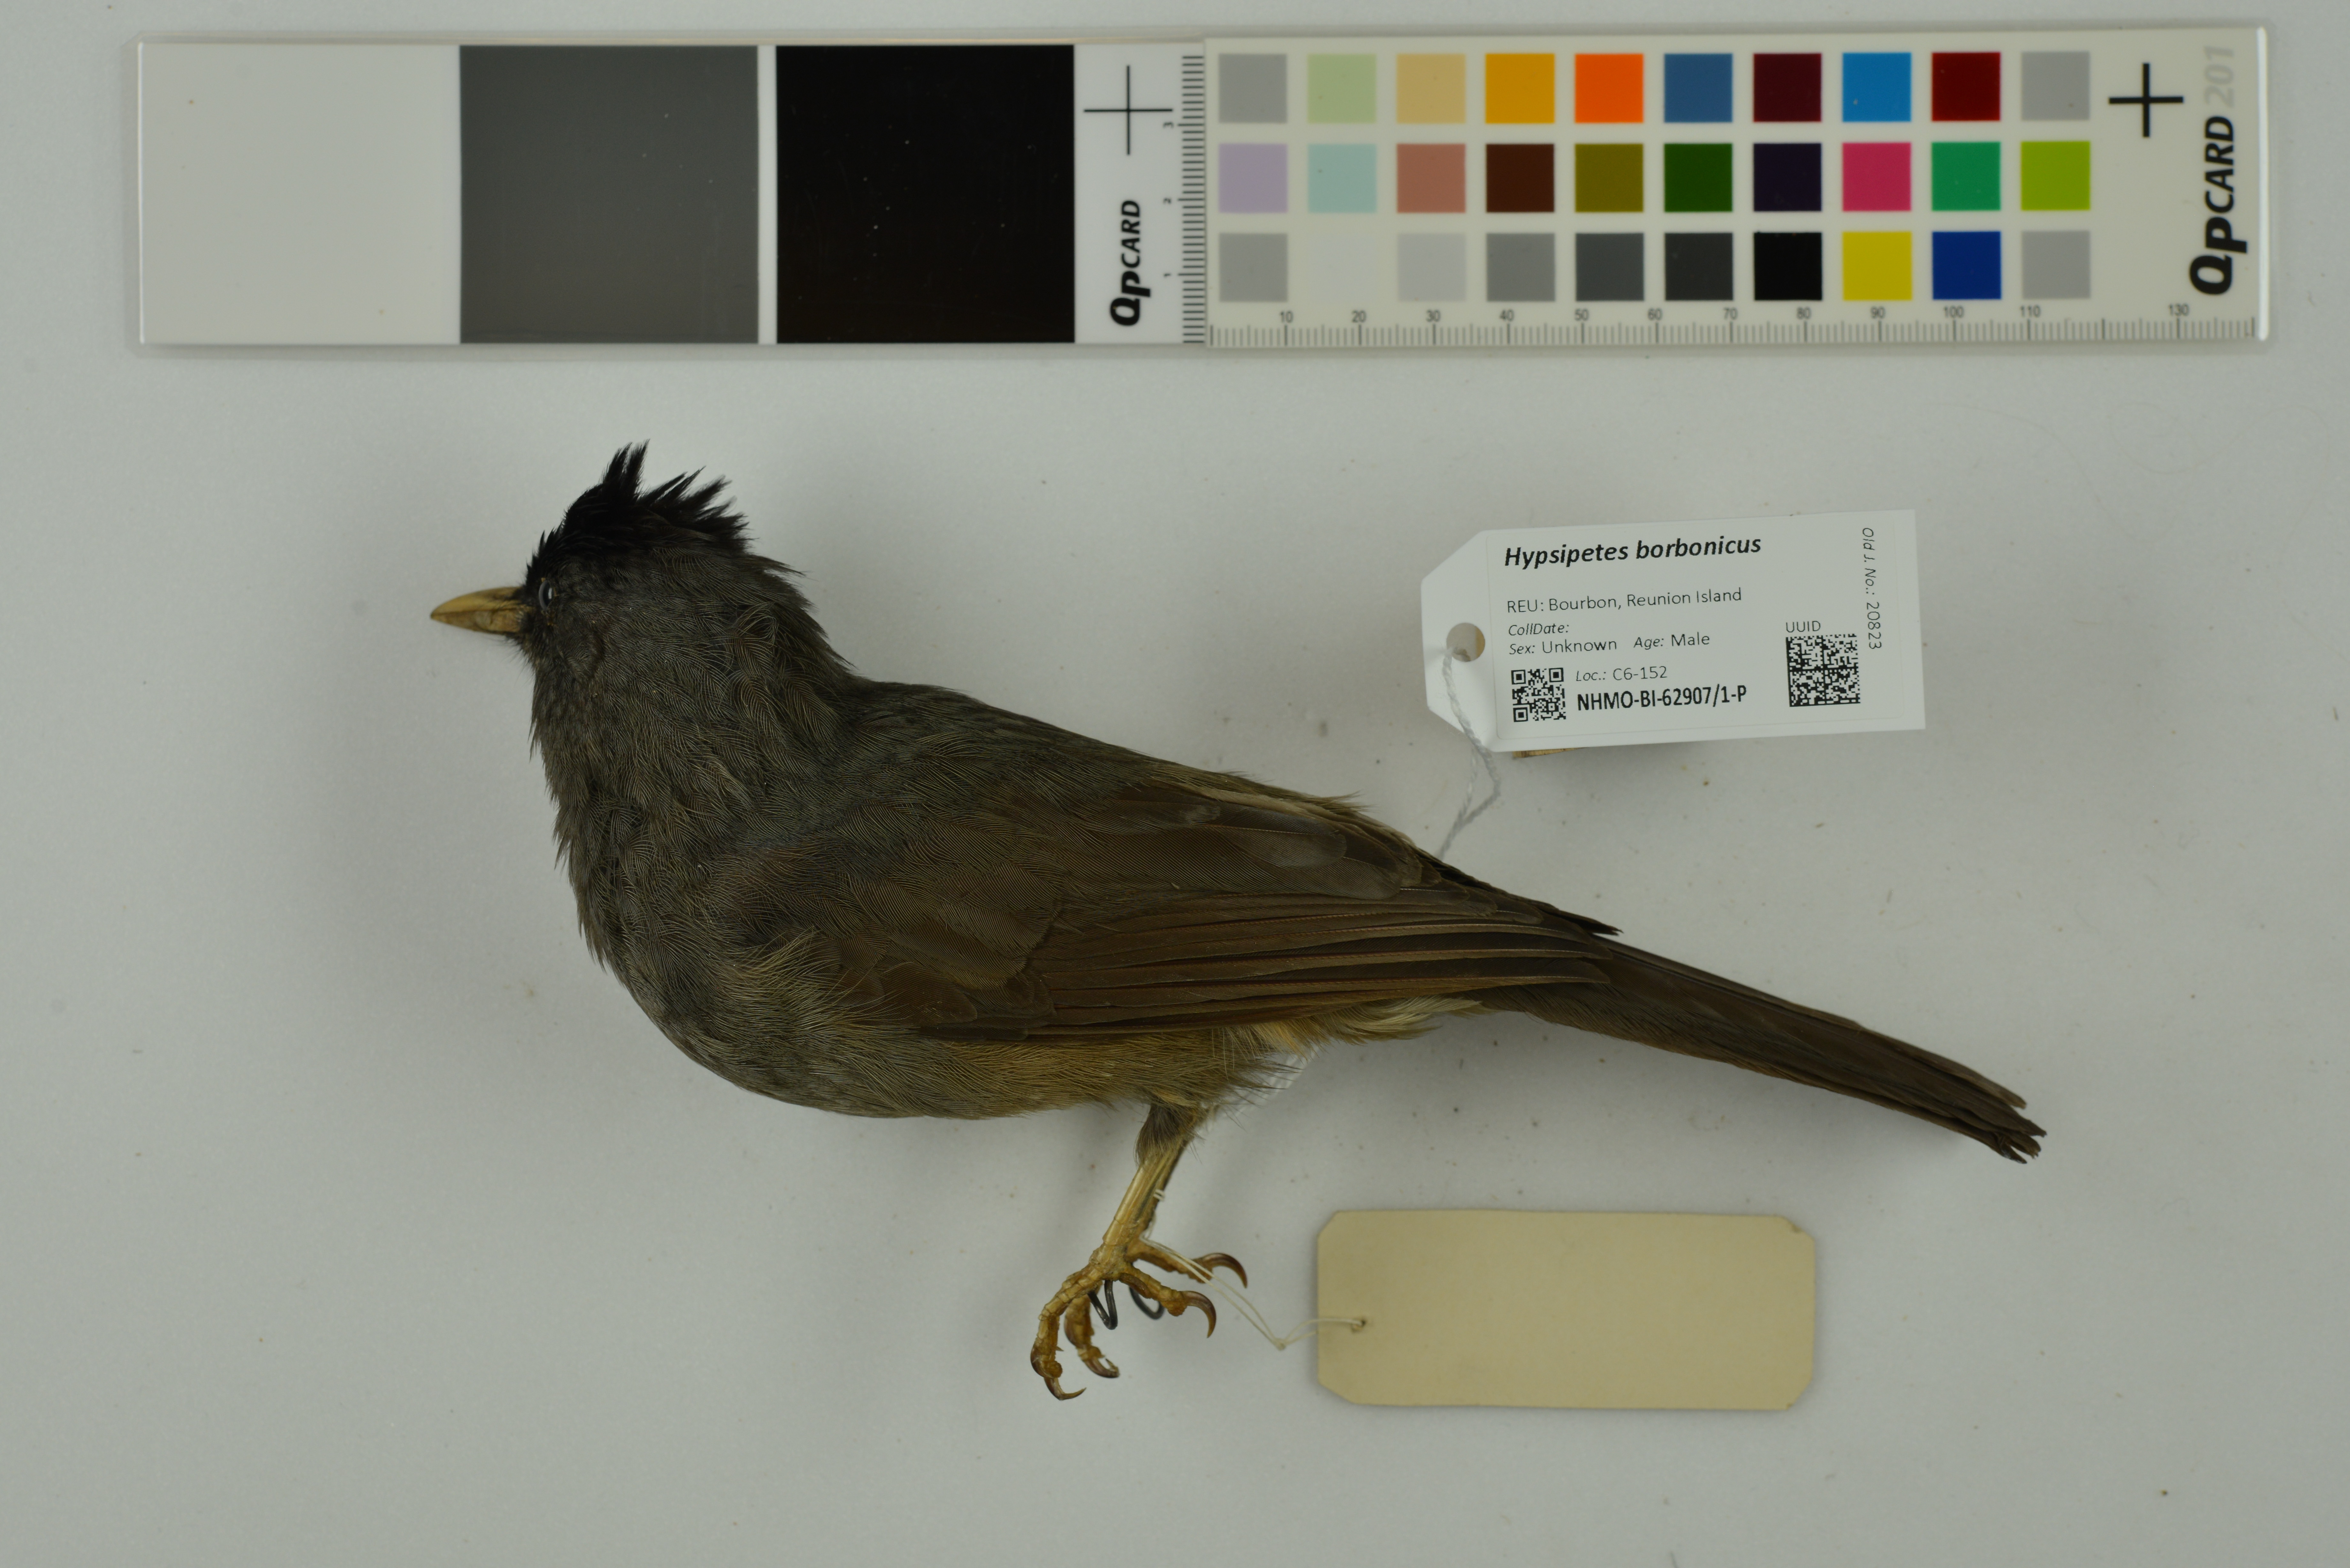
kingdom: Animalia
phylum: Chordata
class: Aves
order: Passeriformes
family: Pycnonotidae
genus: Hypsipetes
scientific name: Hypsipetes borbonicus
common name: Reunion bulbul
